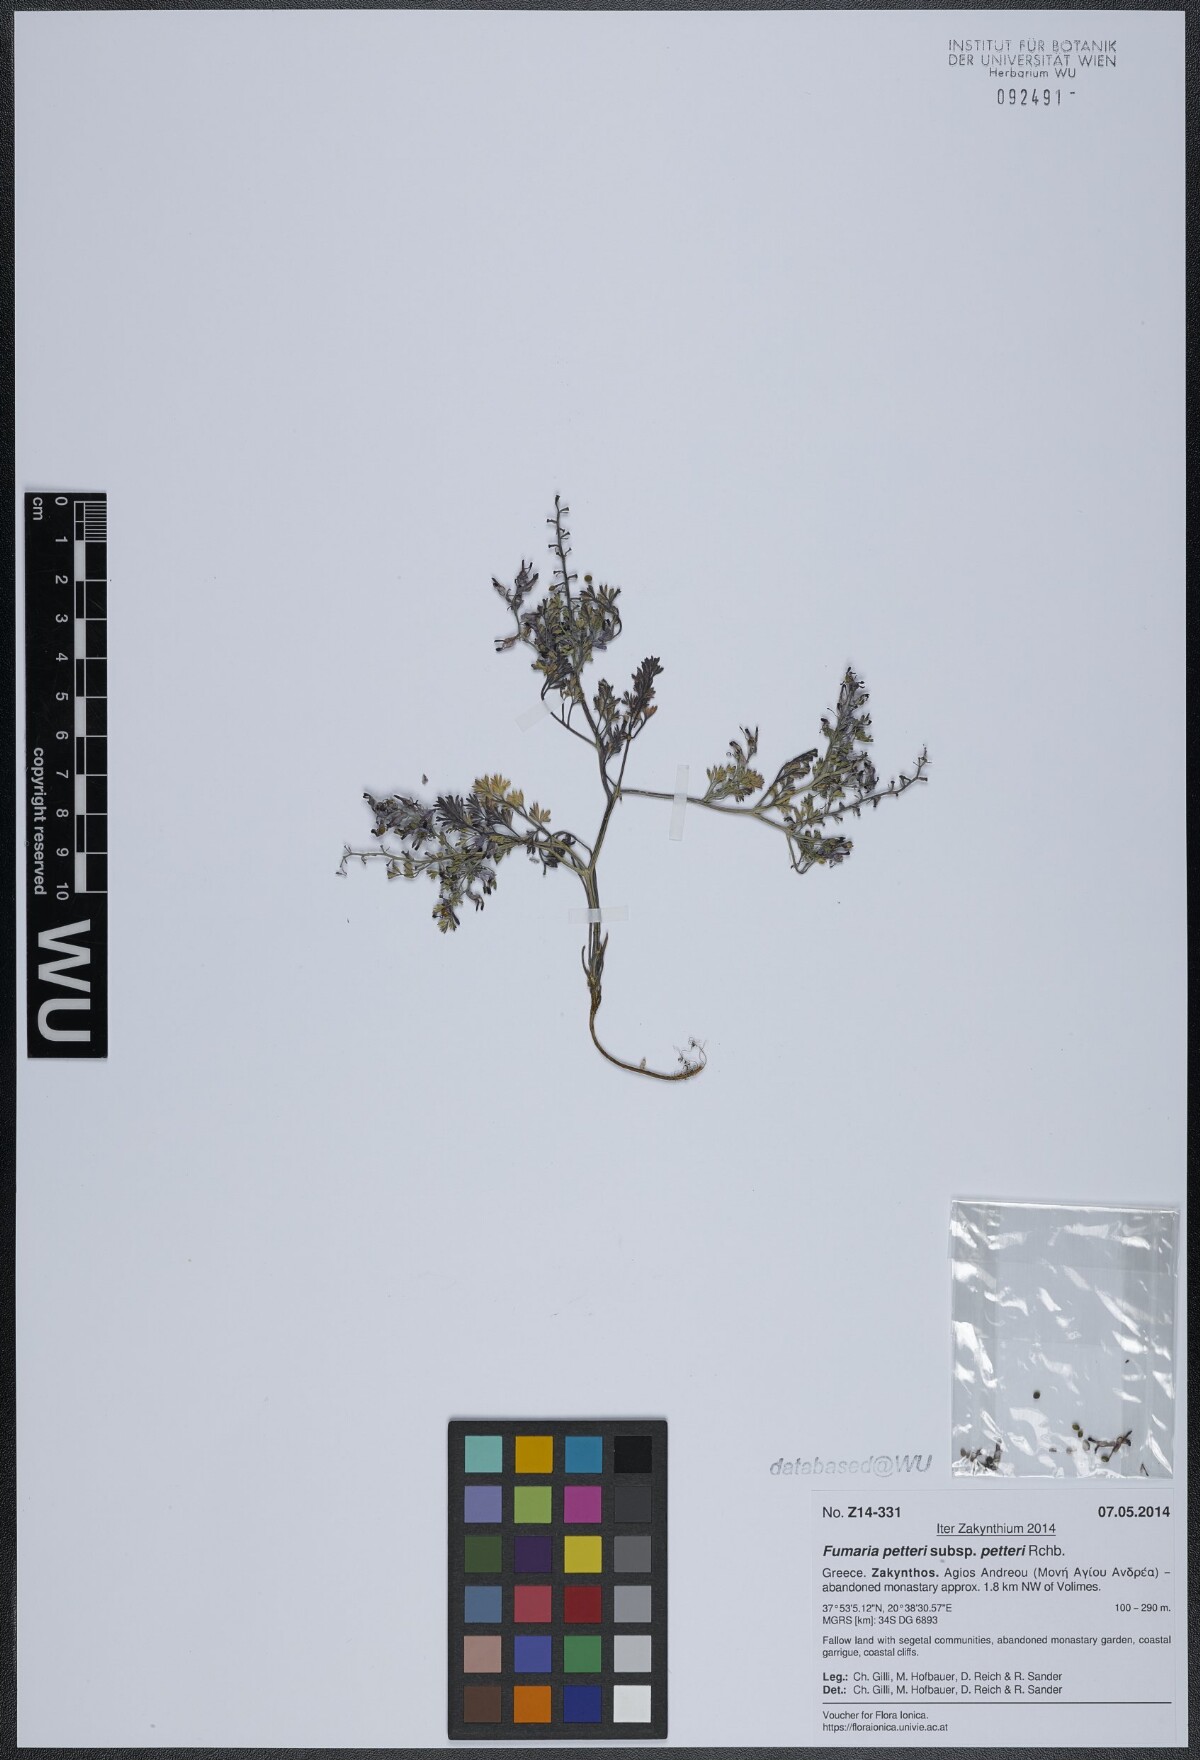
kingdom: Plantae
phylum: Tracheophyta
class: Magnoliopsida
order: Ranunculales
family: Papaveraceae
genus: Fumaria
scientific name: Fumaria petteri
